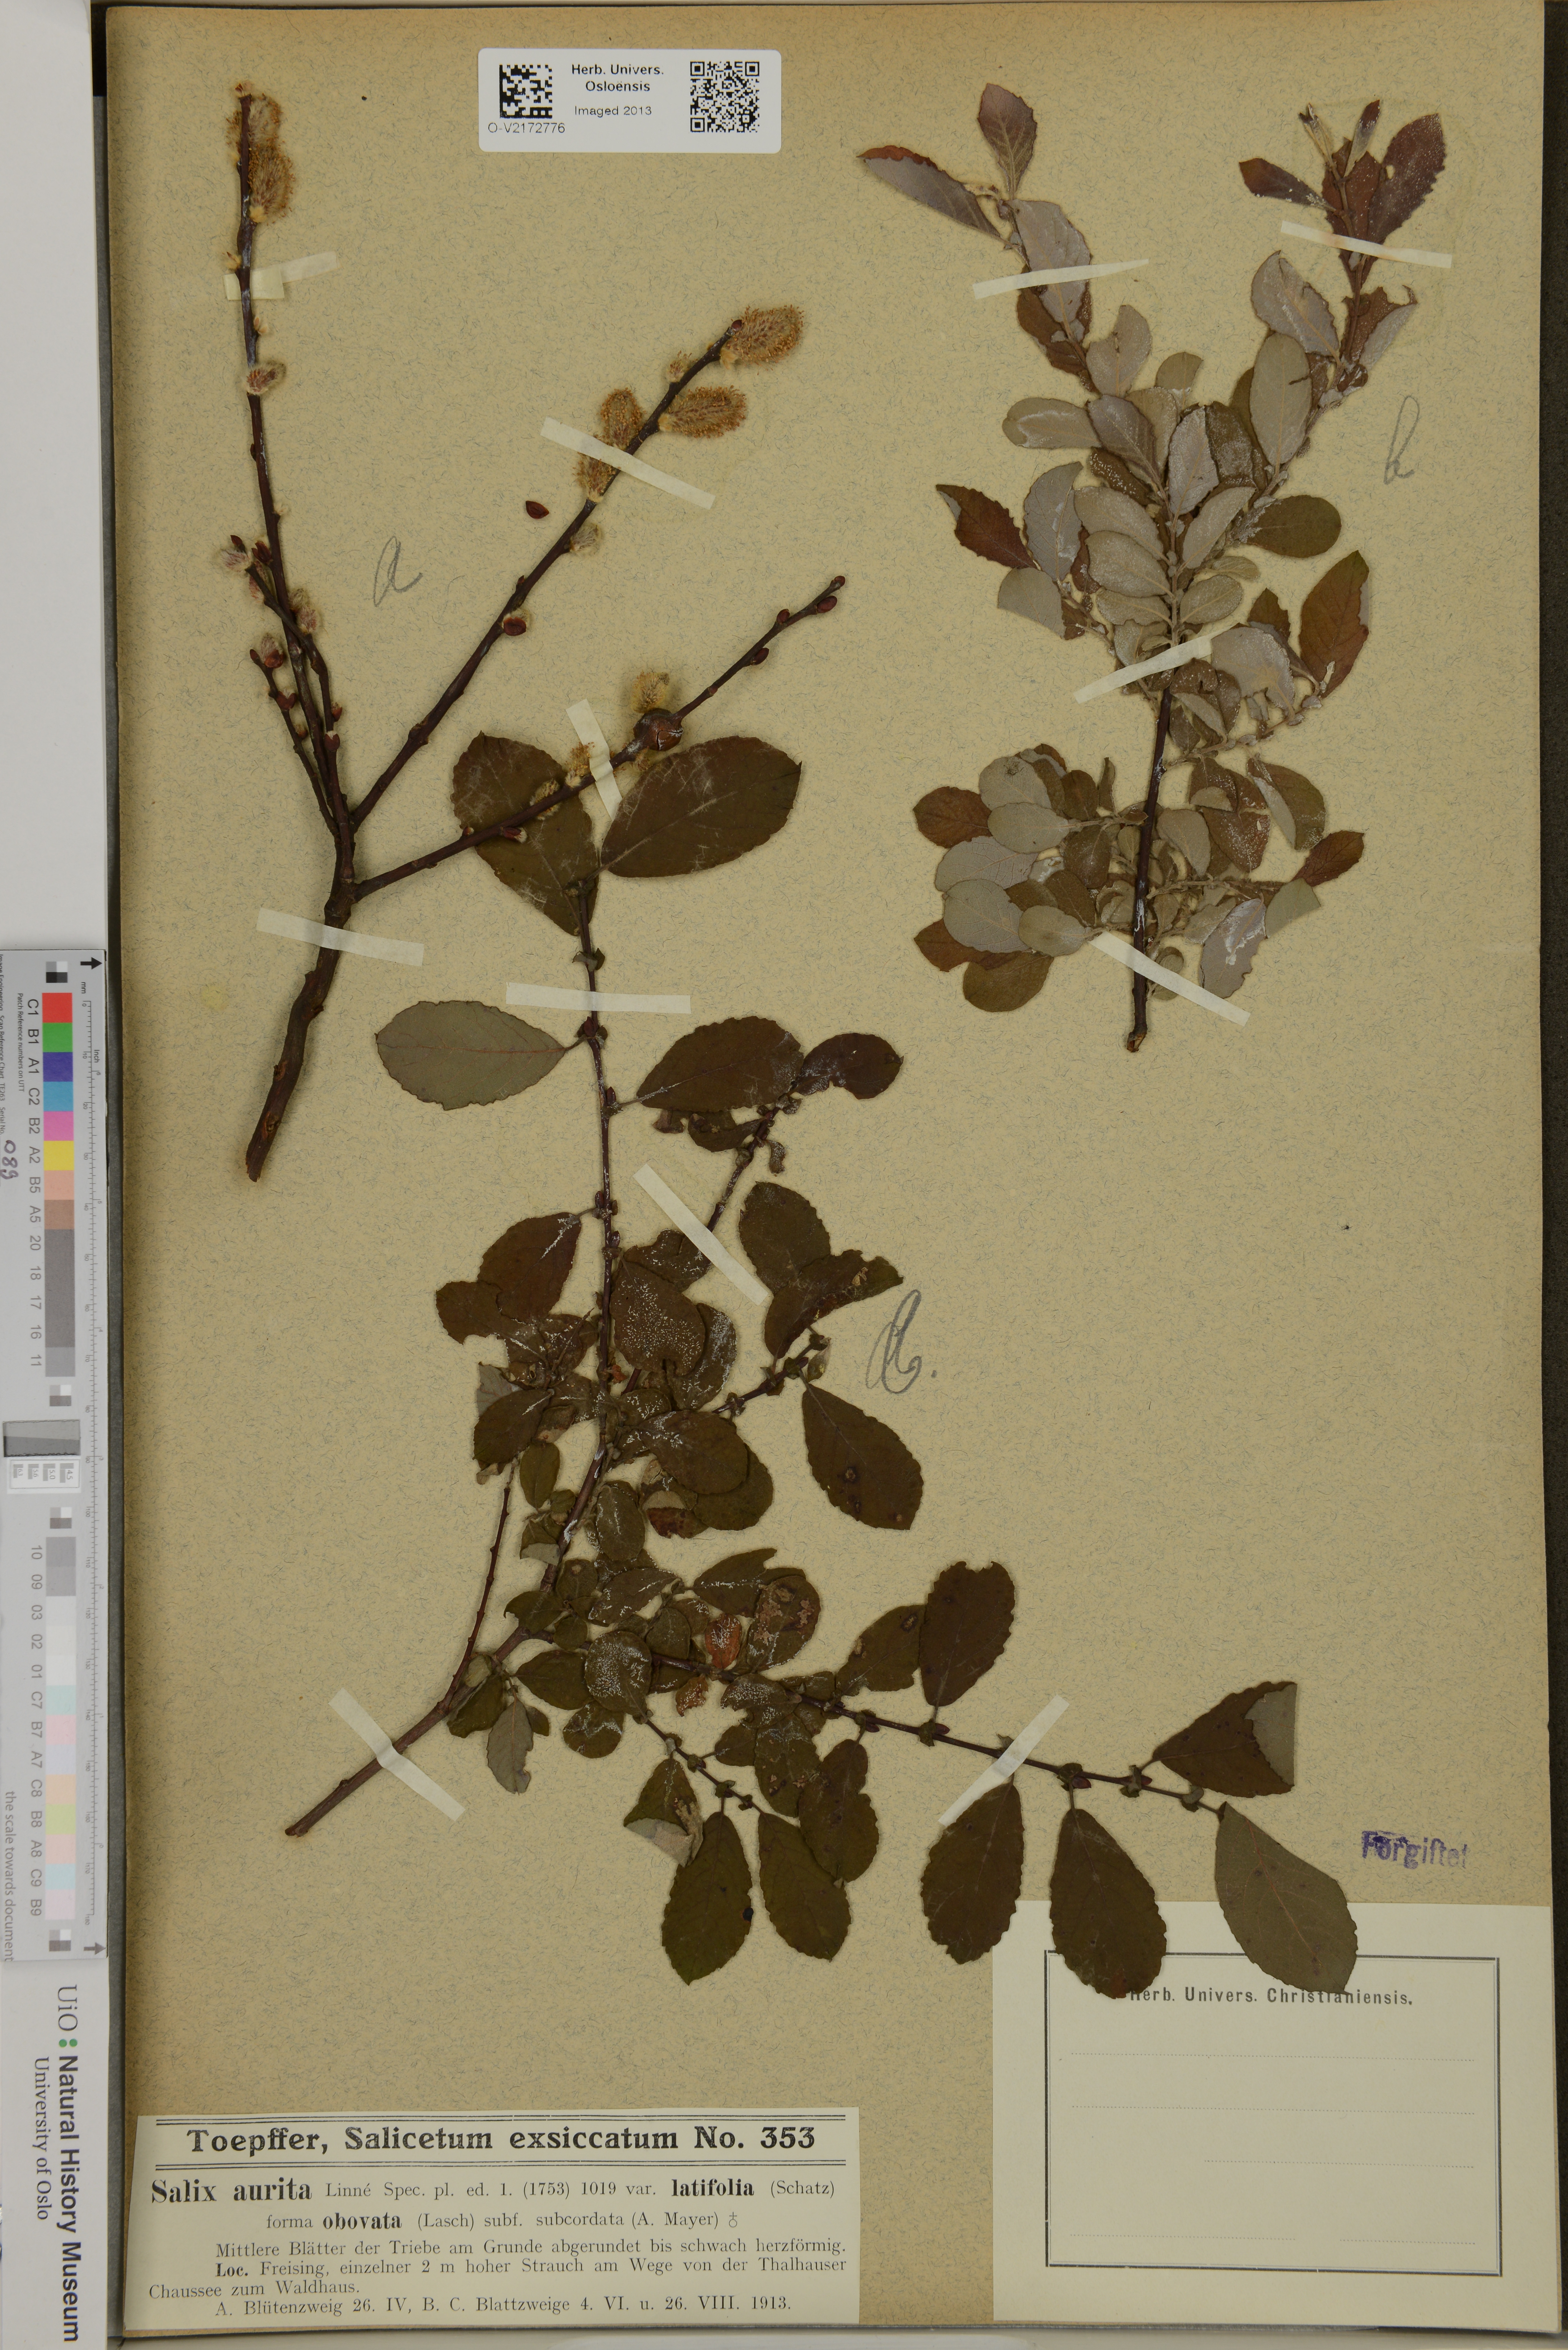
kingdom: Plantae
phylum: Tracheophyta
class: Magnoliopsida
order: Malpighiales
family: Salicaceae
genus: Salix
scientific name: Salix aurita
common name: Eared willow
